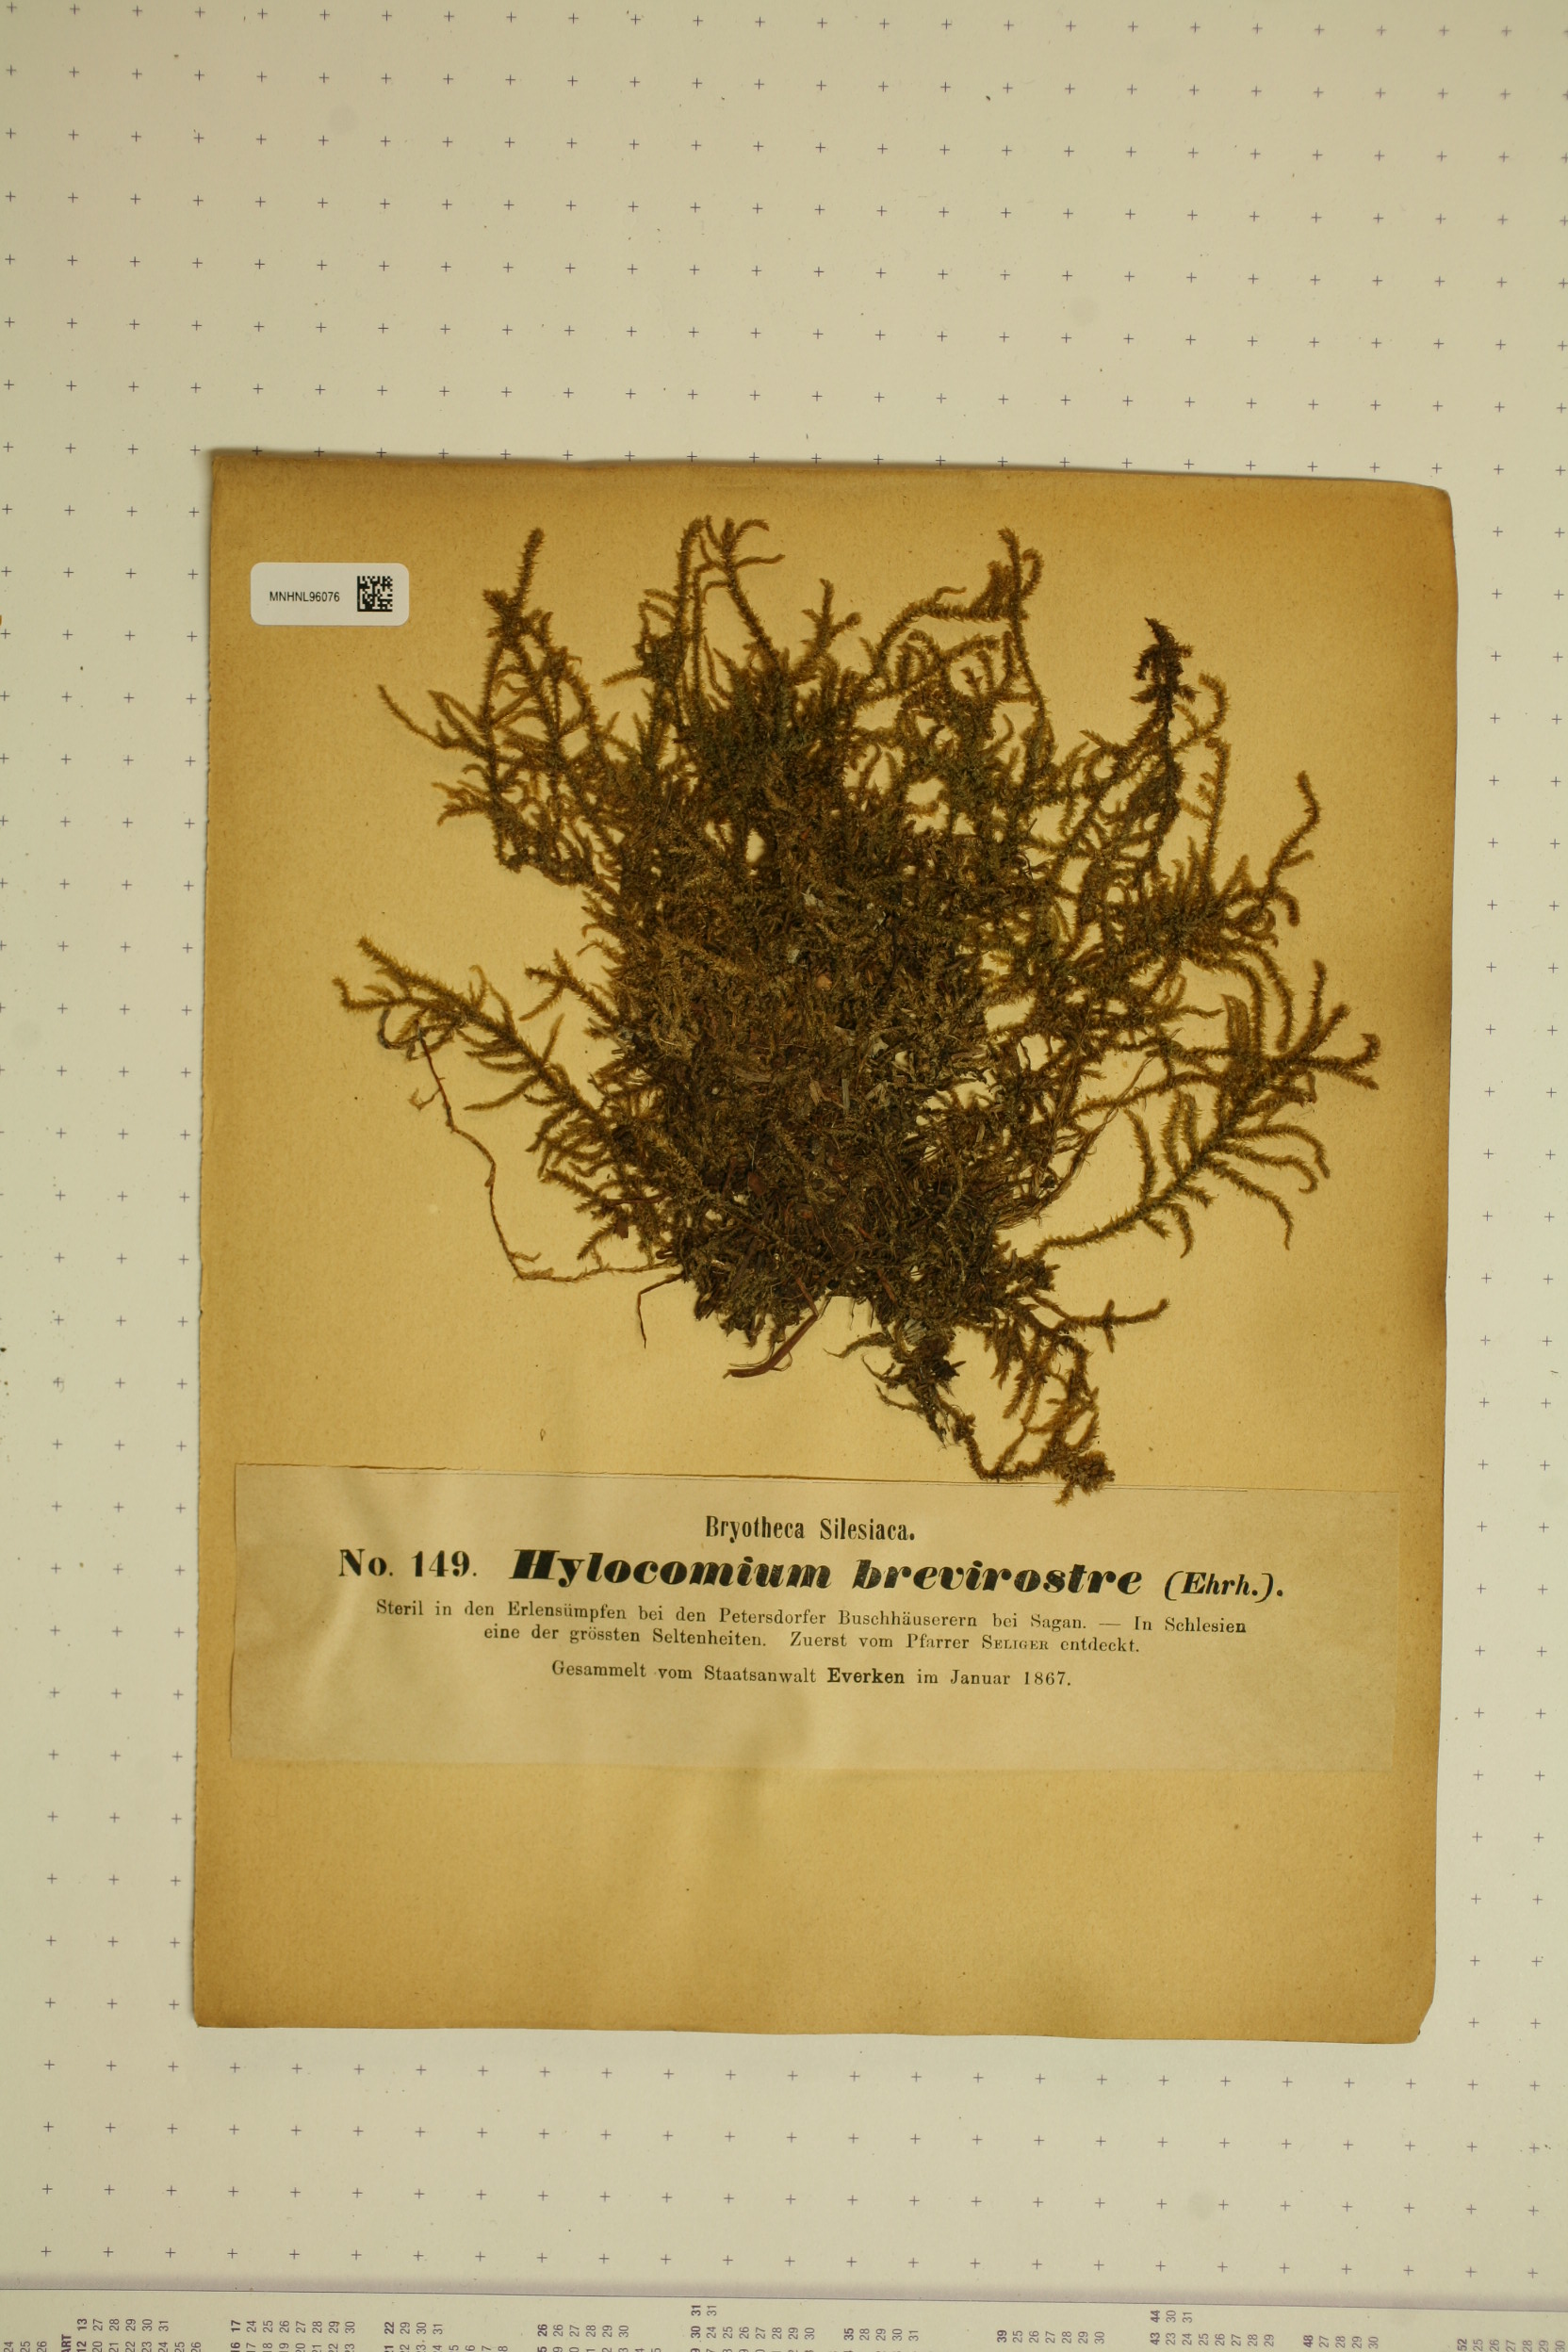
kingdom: Plantae
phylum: Bryophyta
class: Bryopsida
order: Hypnales
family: Hylocomiaceae
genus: Loeskeobryum
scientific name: Loeskeobryum brevirostre
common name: Short-beaked wood-moss
